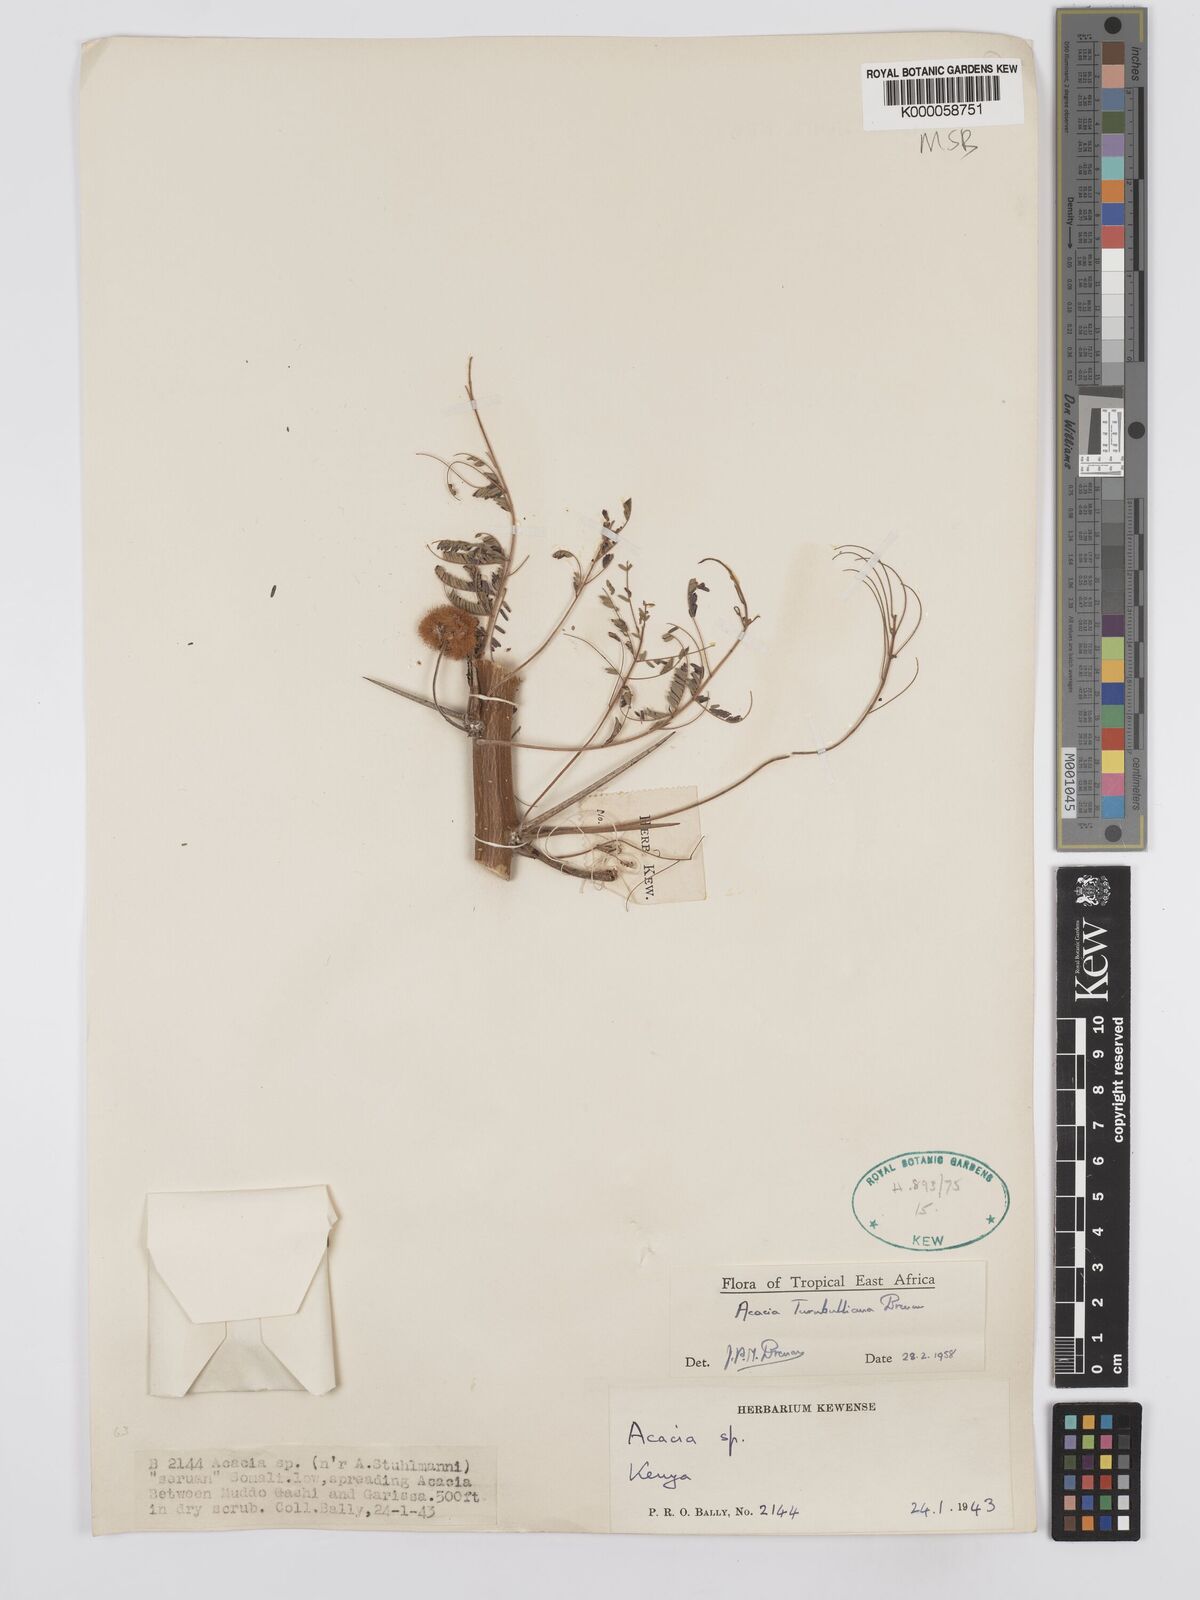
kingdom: Plantae
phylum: Tracheophyta
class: Magnoliopsida
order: Fabales
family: Fabaceae
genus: Vachellia
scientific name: Vachellia edgeworthii
